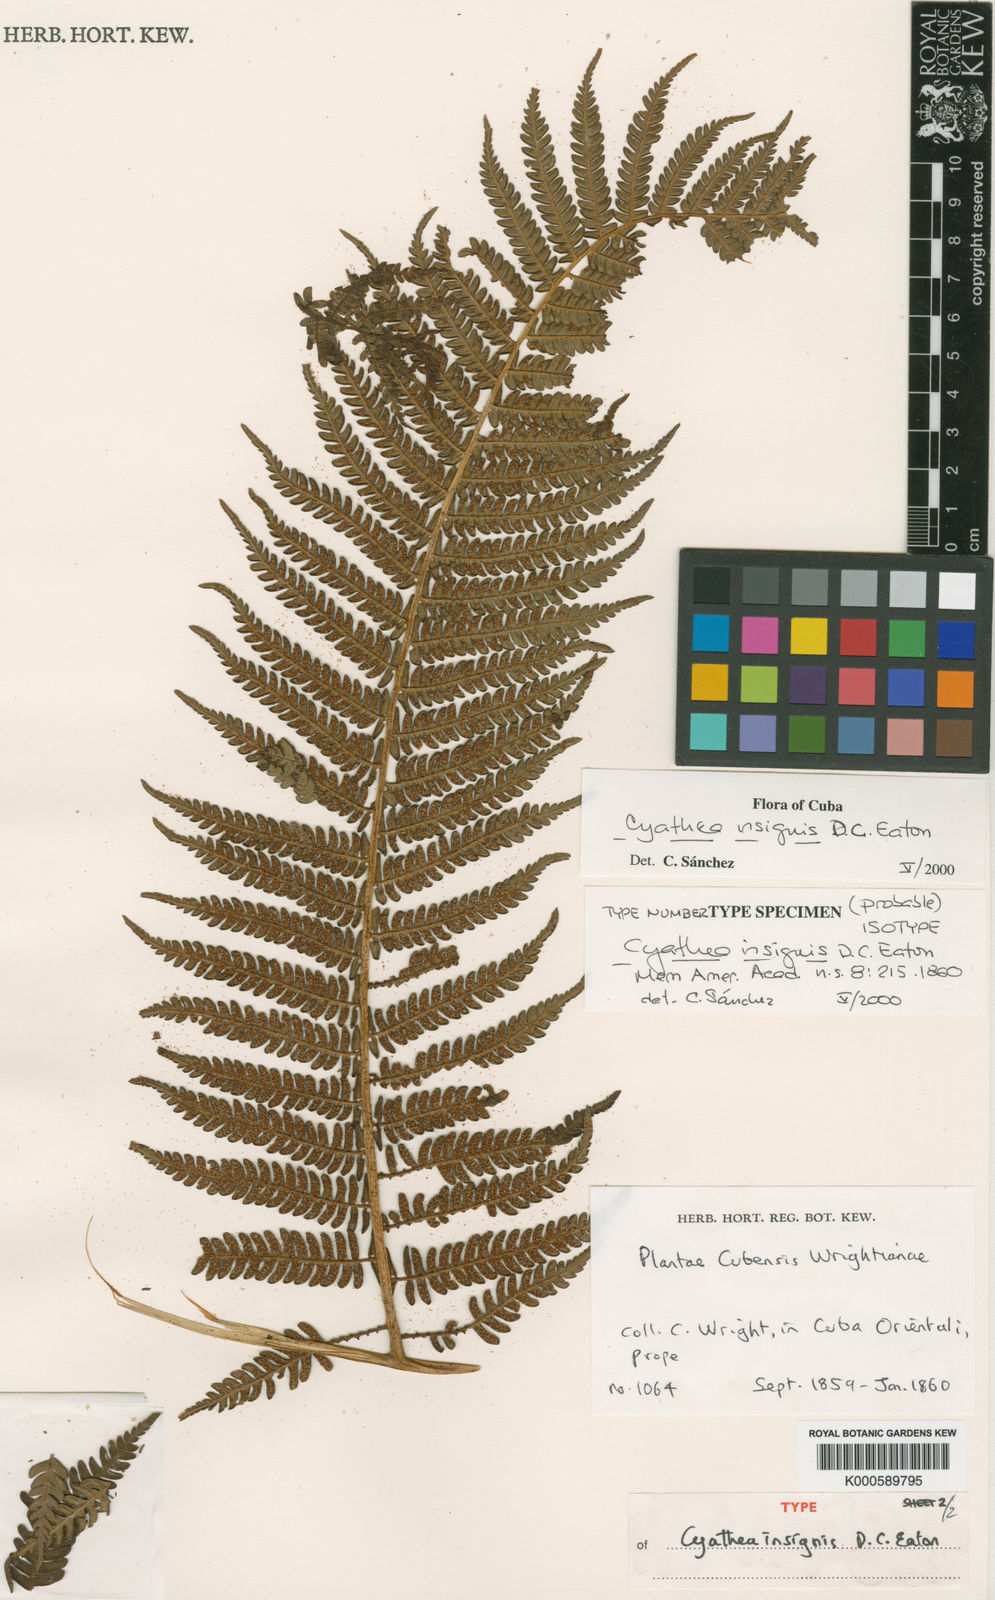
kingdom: Plantae
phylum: Tracheophyta
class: Polypodiopsida
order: Cyatheales
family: Cyatheaceae
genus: Sphaeropteris
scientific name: Sphaeropteris insignis
